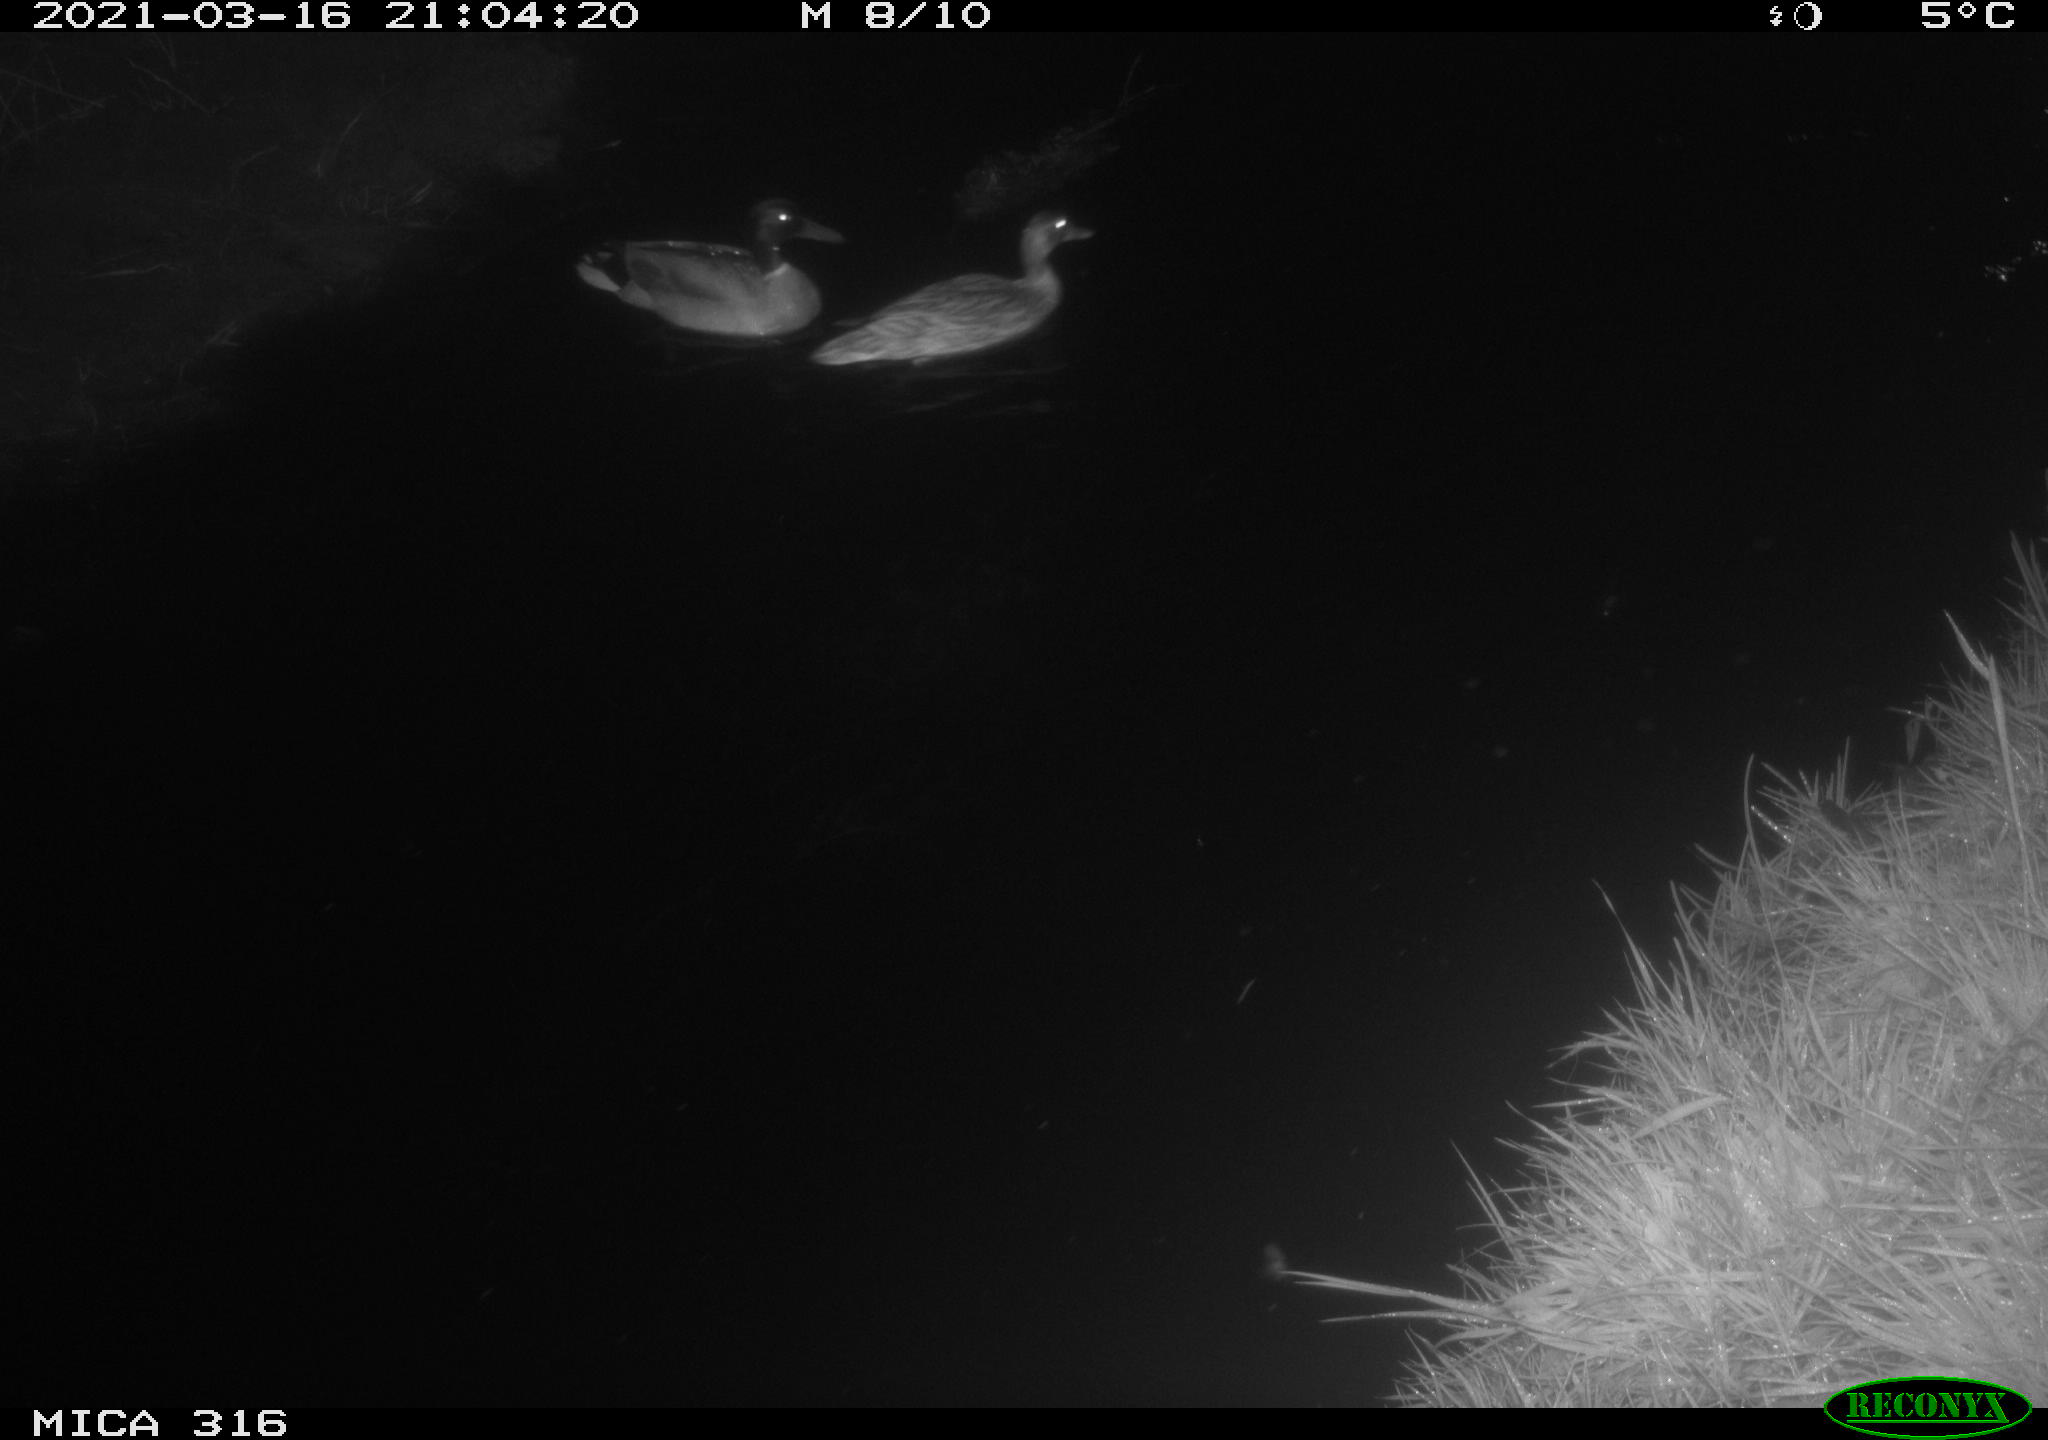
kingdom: Animalia
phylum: Chordata
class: Aves
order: Anseriformes
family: Anatidae
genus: Anas
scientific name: Anas platyrhynchos
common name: Mallard
